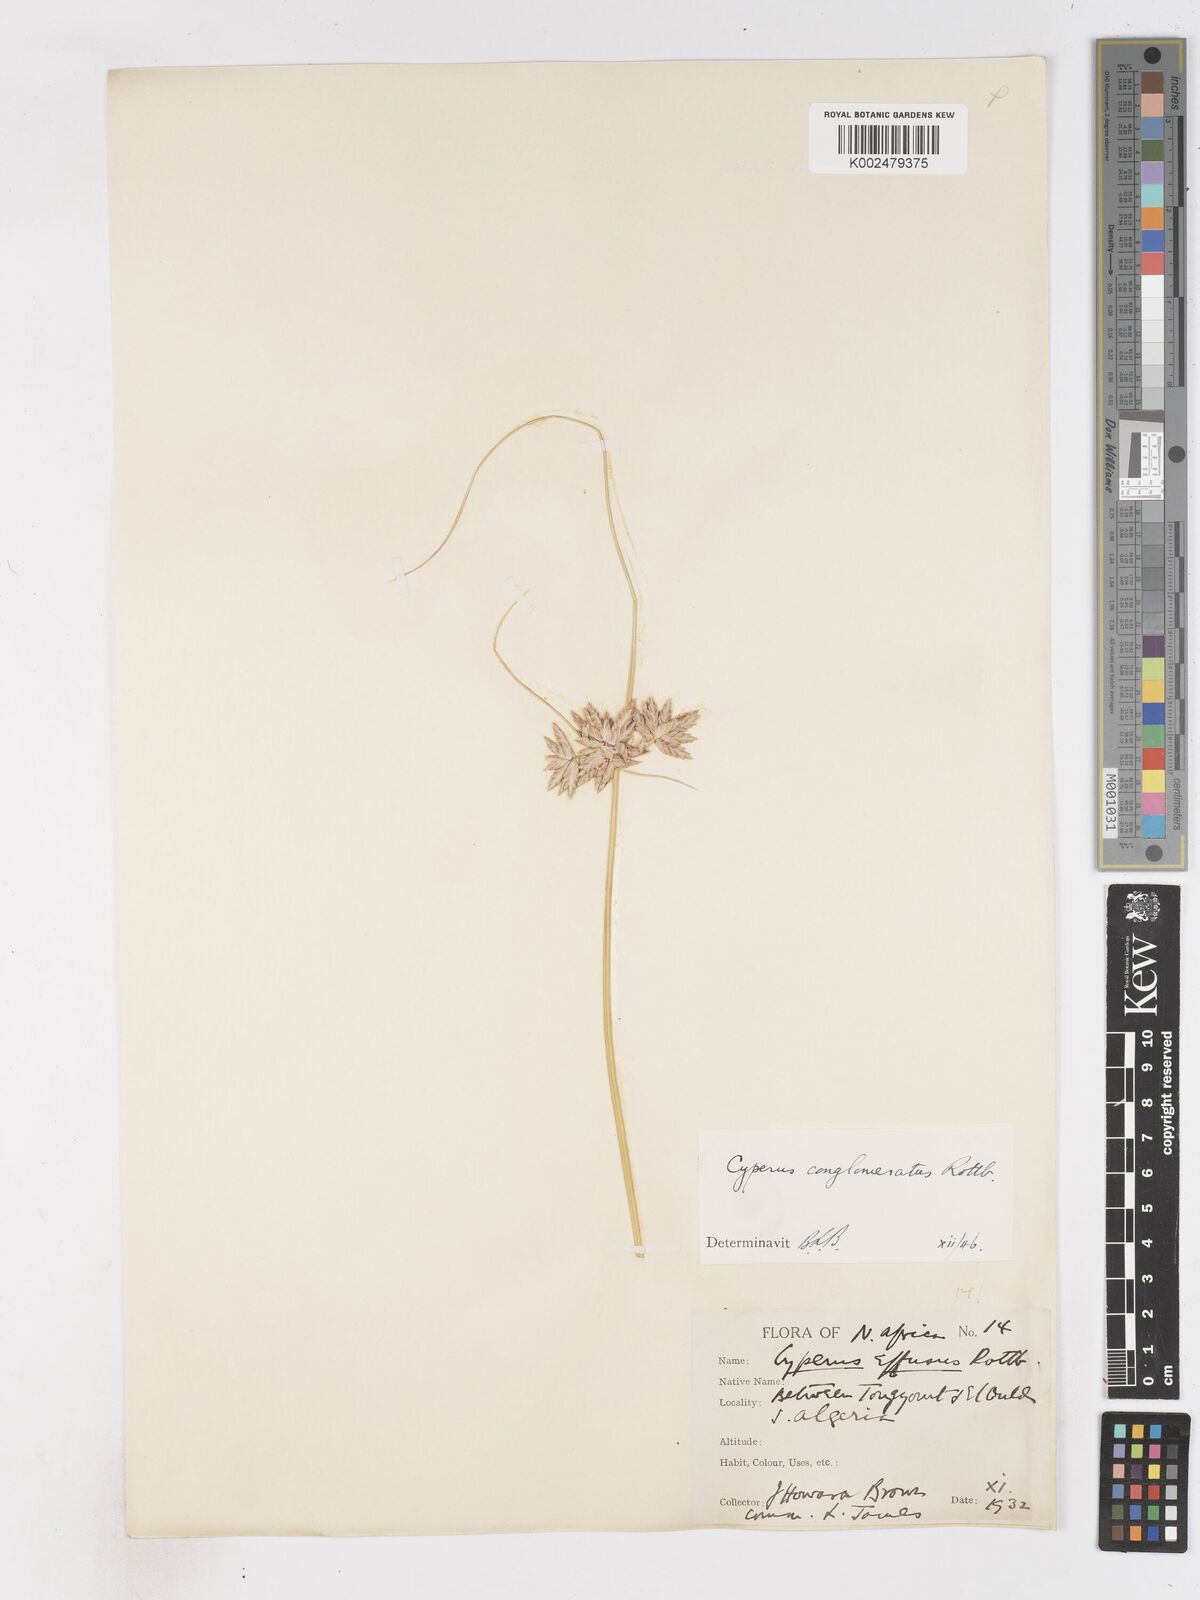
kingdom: Plantae
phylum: Tracheophyta
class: Liliopsida
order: Poales
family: Cyperaceae
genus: Cyperus
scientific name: Cyperus conglomeratus
